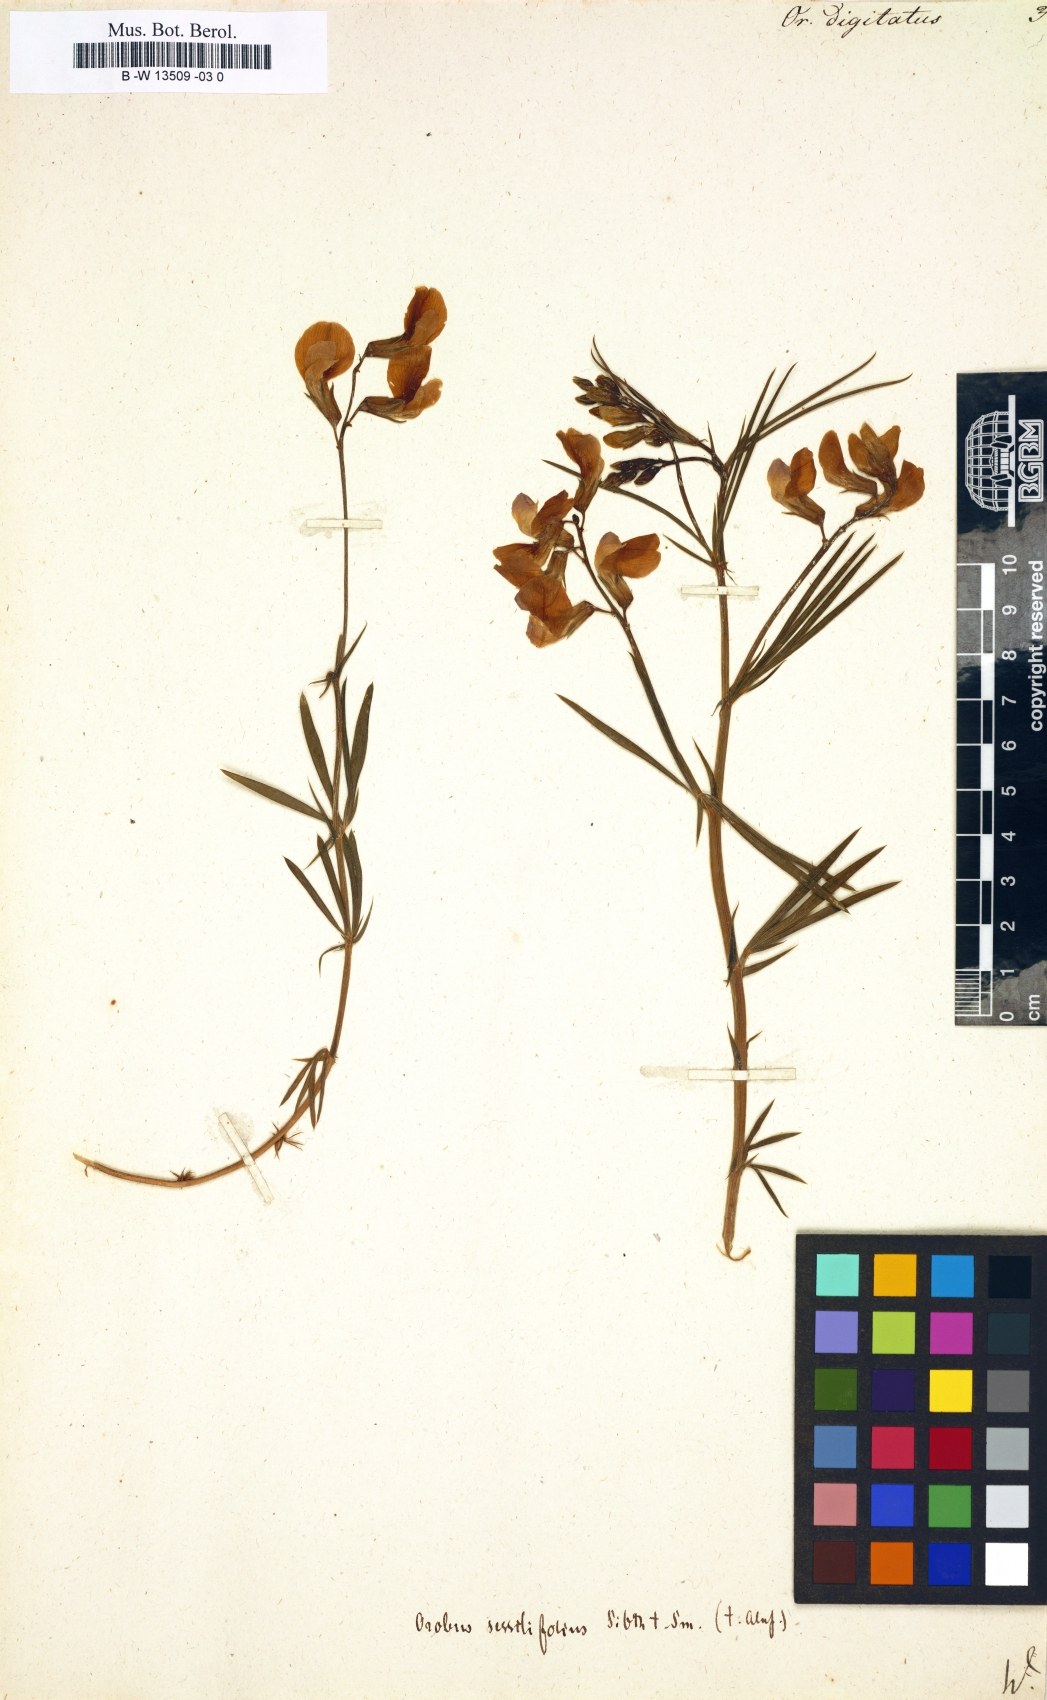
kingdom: Plantae
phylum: Tracheophyta
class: Magnoliopsida
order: Fabales
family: Fabaceae
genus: Lathyrus
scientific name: Lathyrus digitatus
